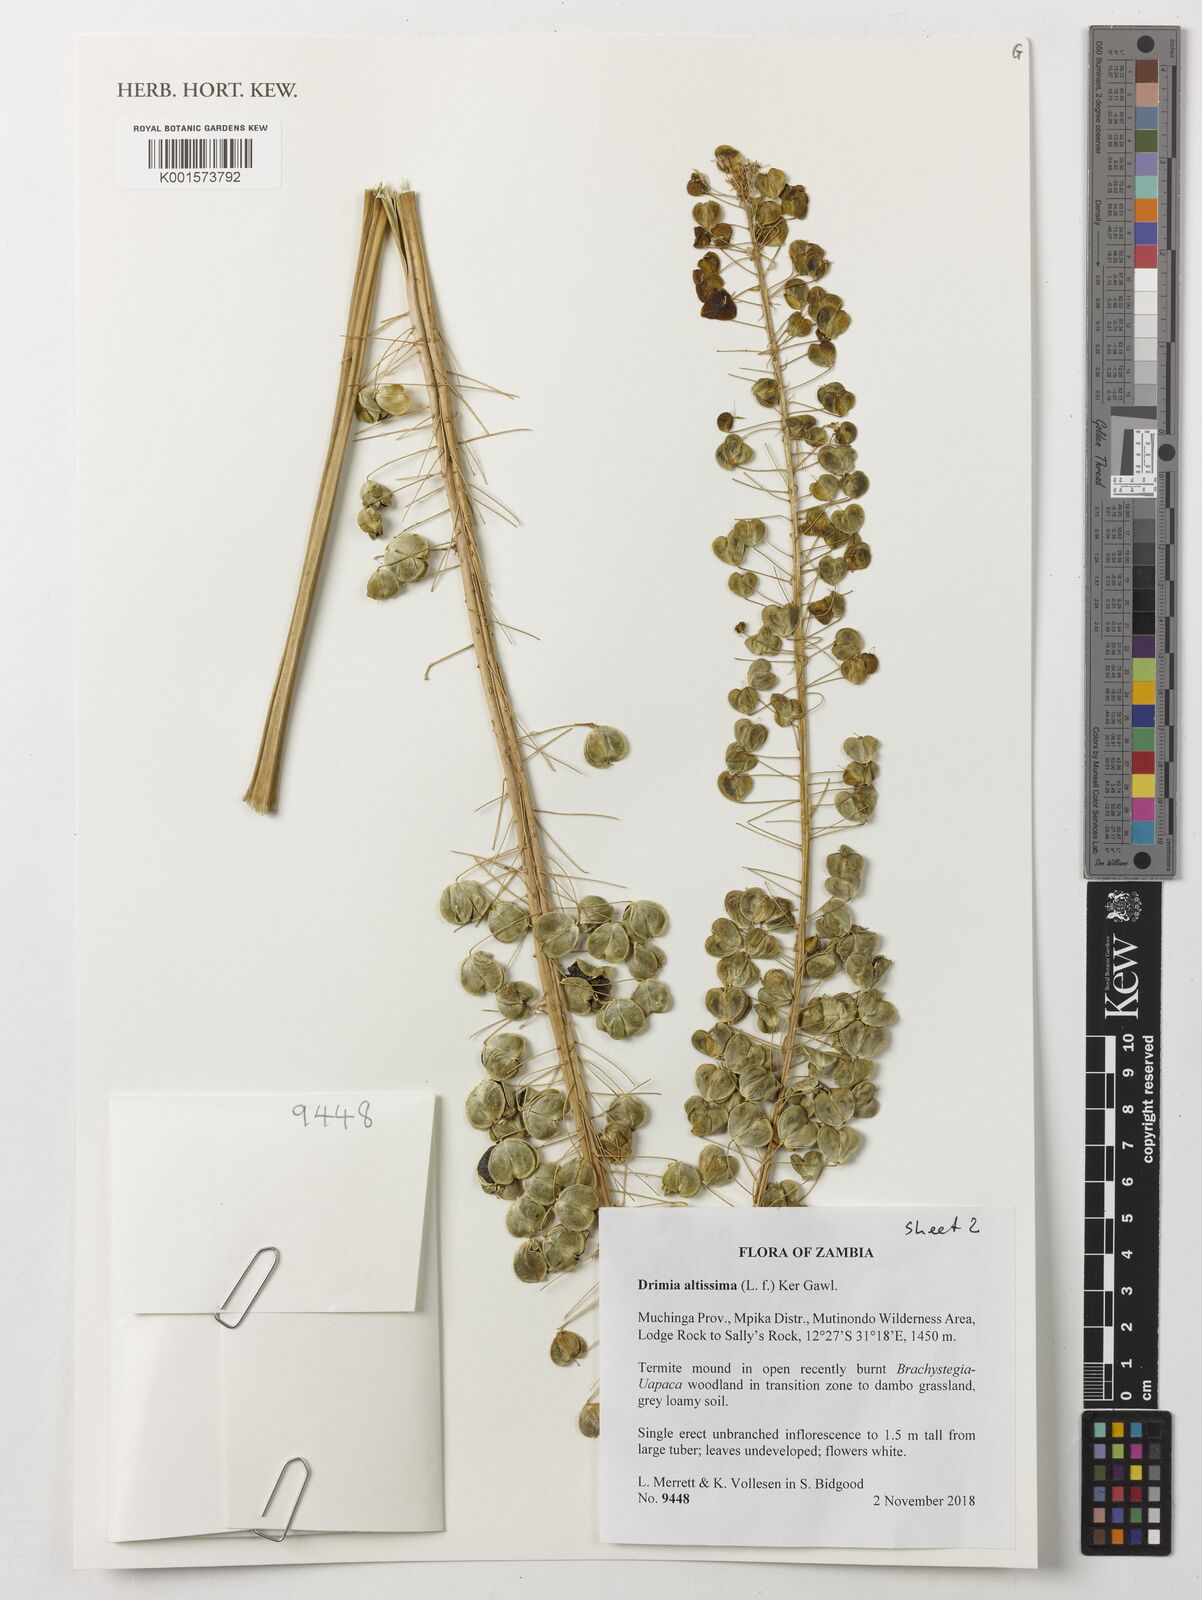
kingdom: Plantae
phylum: Tracheophyta
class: Liliopsida
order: Asparagales
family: Asparagaceae
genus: Drimia
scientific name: Drimia altissima
